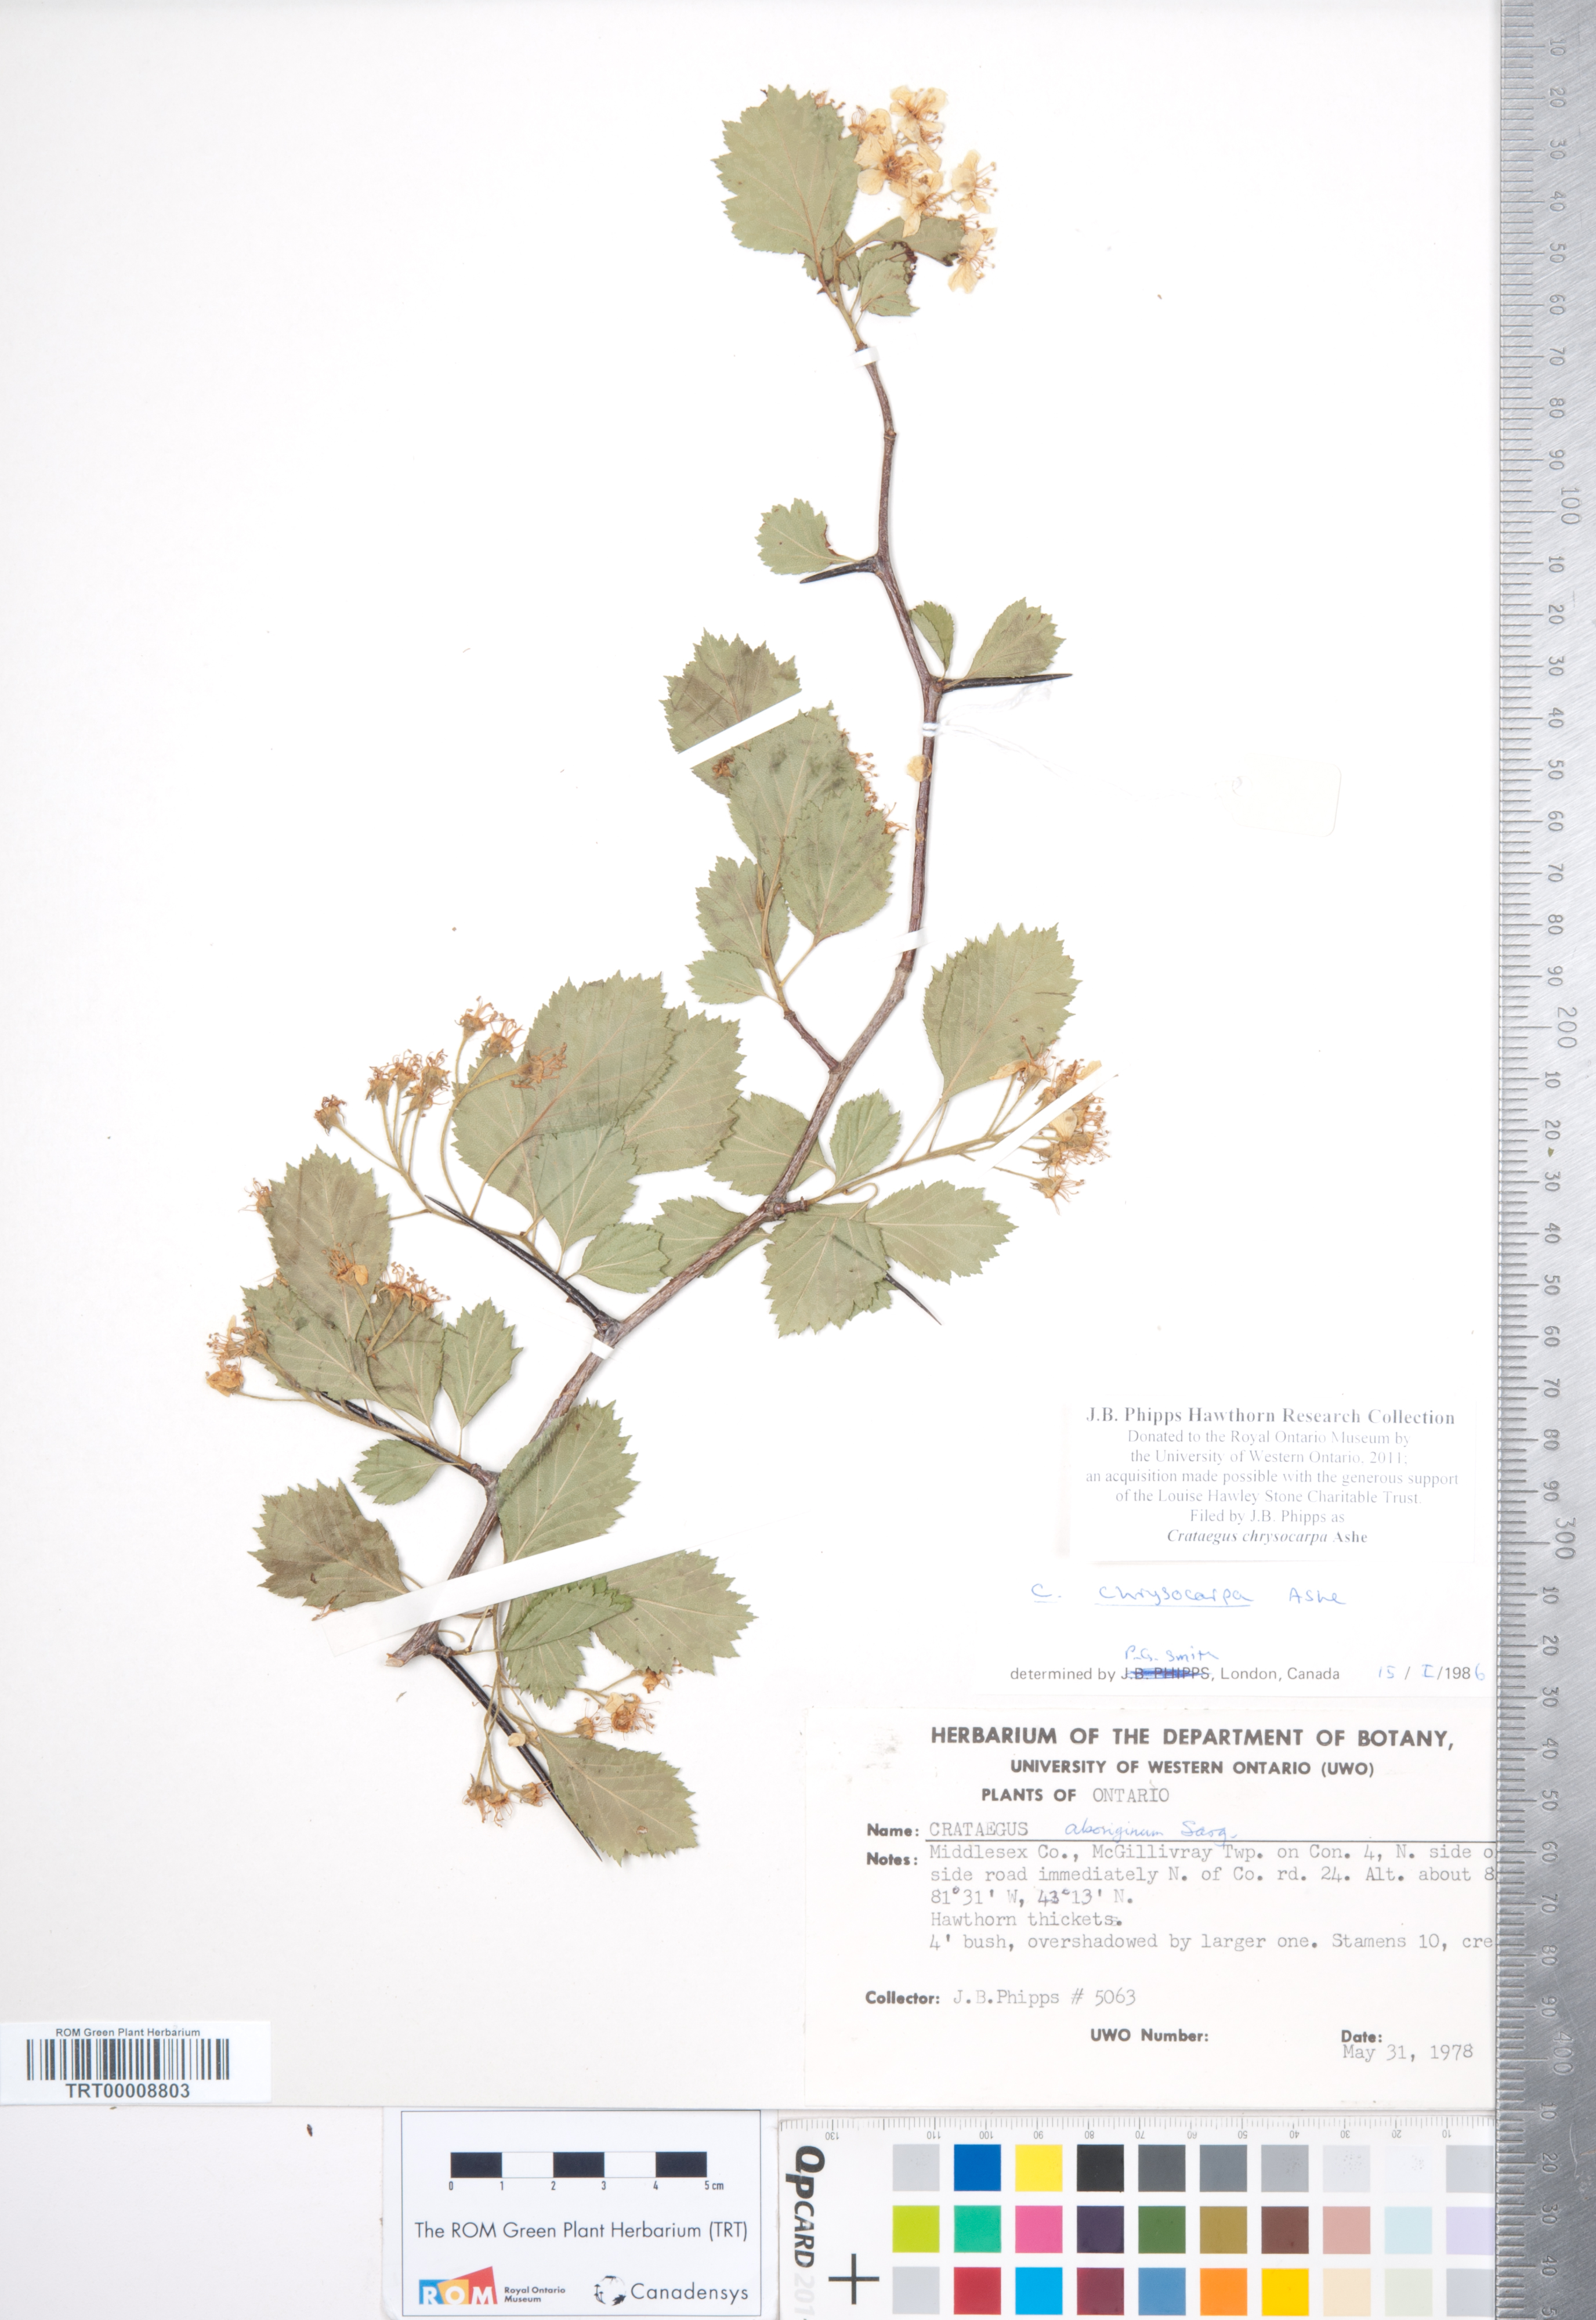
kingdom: Plantae
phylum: Tracheophyta
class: Magnoliopsida
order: Rosales
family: Rosaceae
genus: Crataegus
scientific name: Crataegus chrysocarpa
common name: Fire-berry hawthorn
